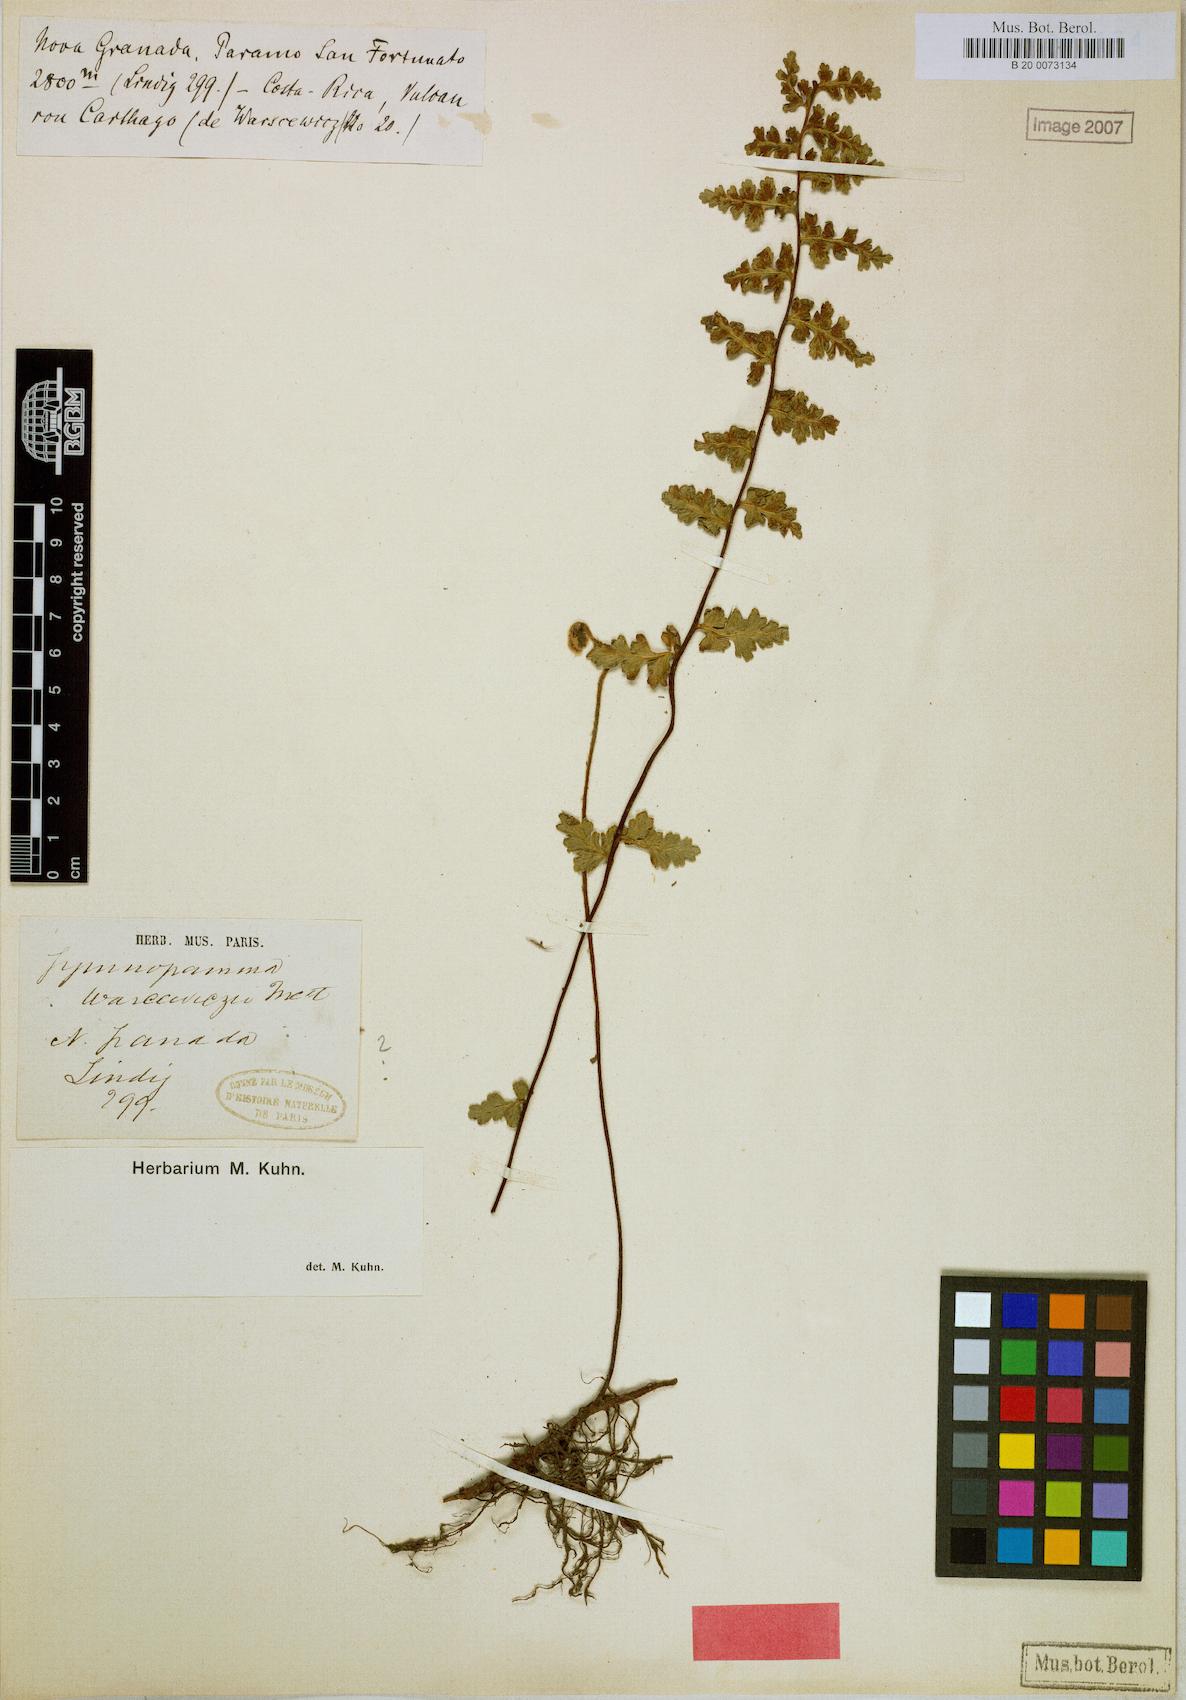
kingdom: Plantae
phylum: Tracheophyta
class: Polypodiopsida
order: Polypodiales
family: Pteridaceae
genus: Jamesonia
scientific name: Jamesonia warscewiczii
